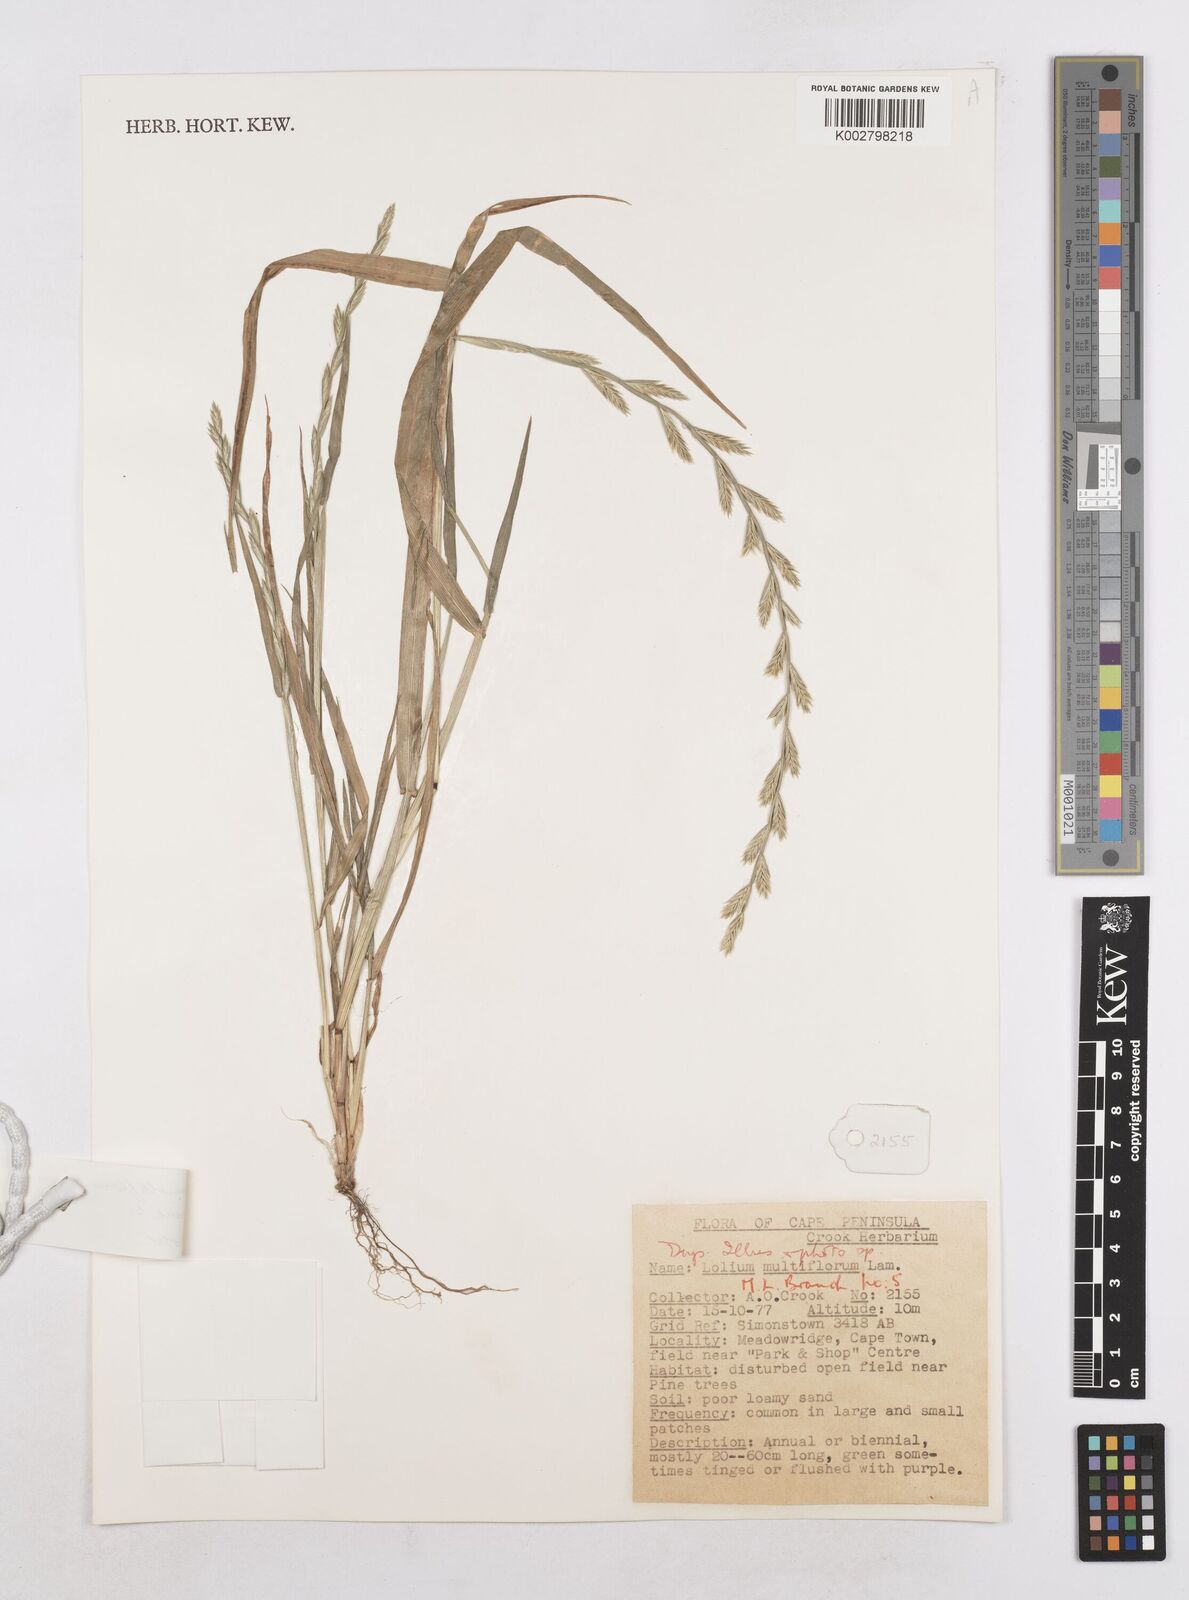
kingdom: Plantae
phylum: Tracheophyta
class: Liliopsida
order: Poales
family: Poaceae
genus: Lolium
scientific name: Lolium multiflorum
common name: Annual ryegrass
